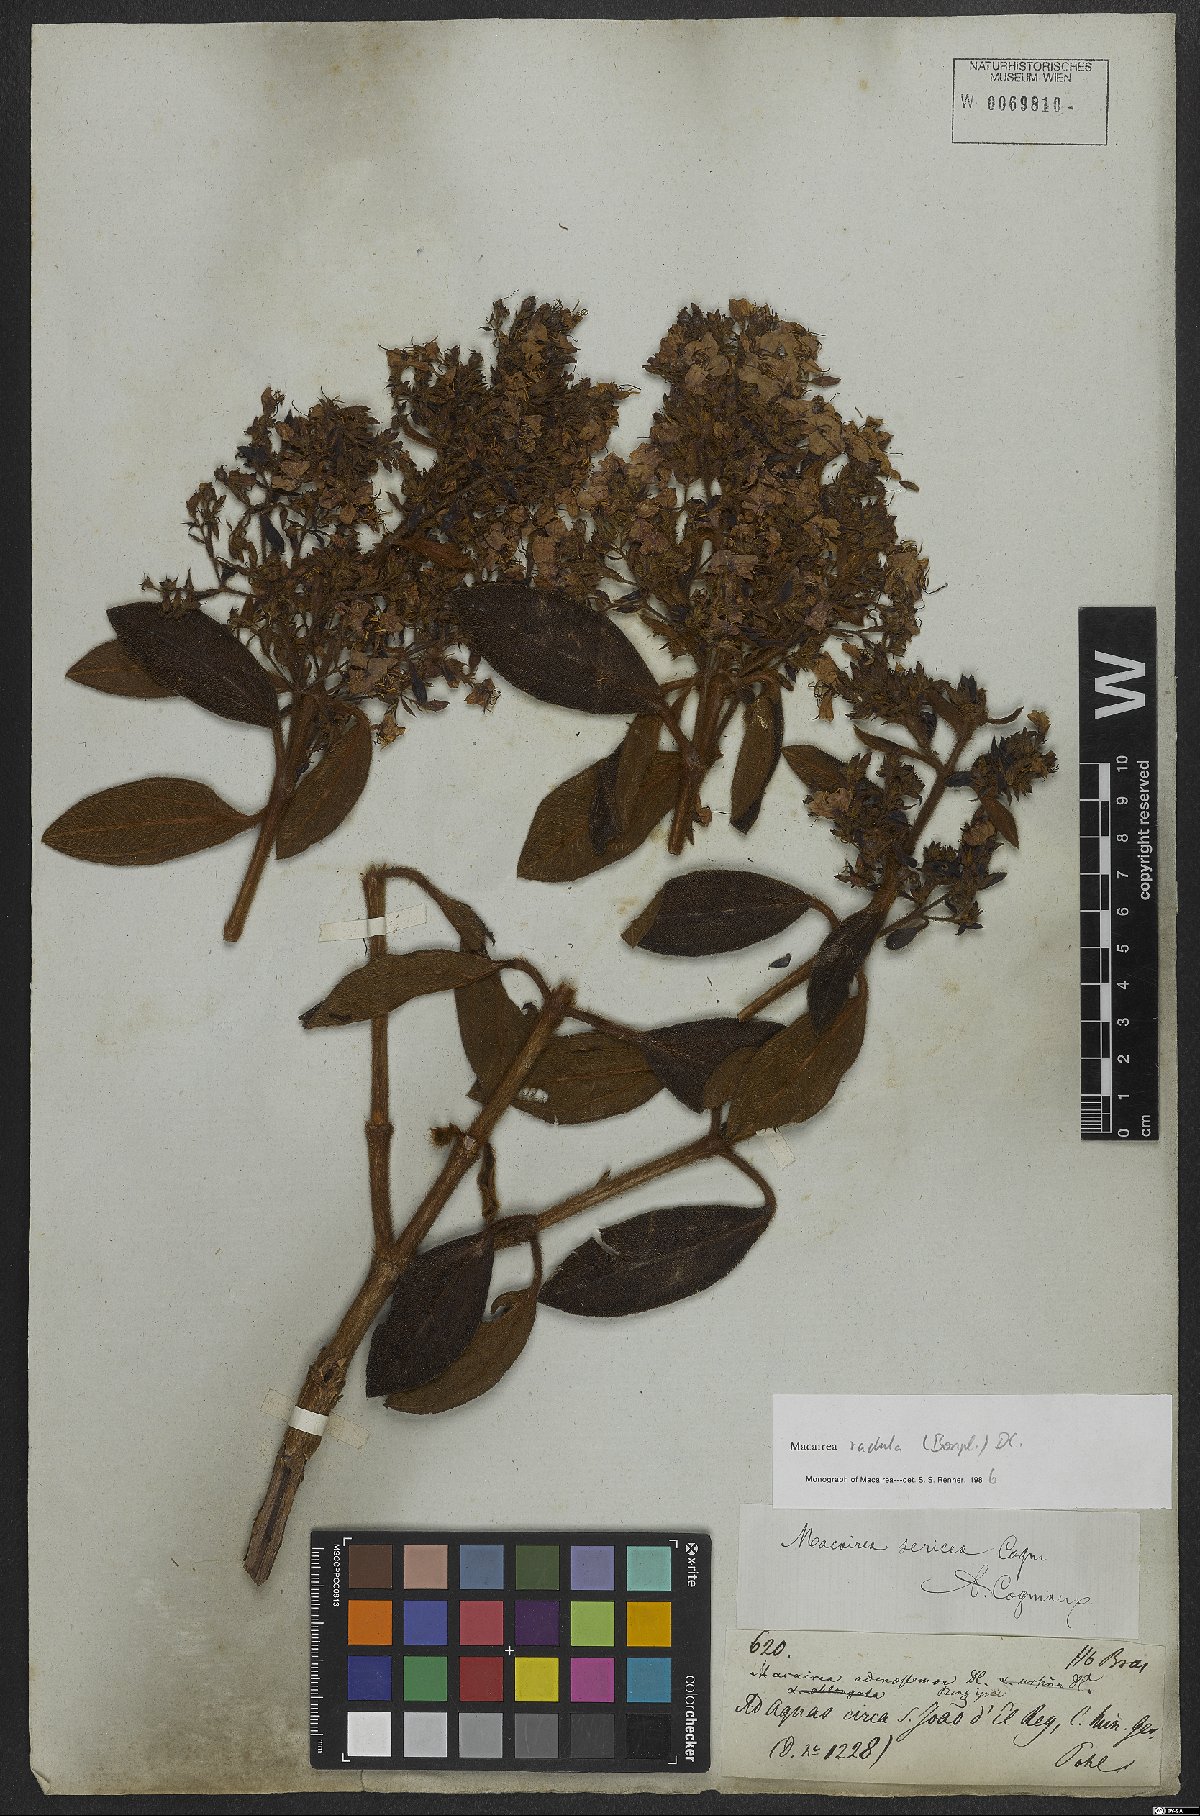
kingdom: Plantae
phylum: Tracheophyta
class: Magnoliopsida
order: Myrtales
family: Melastomataceae
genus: Macairea
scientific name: Macairea radula
